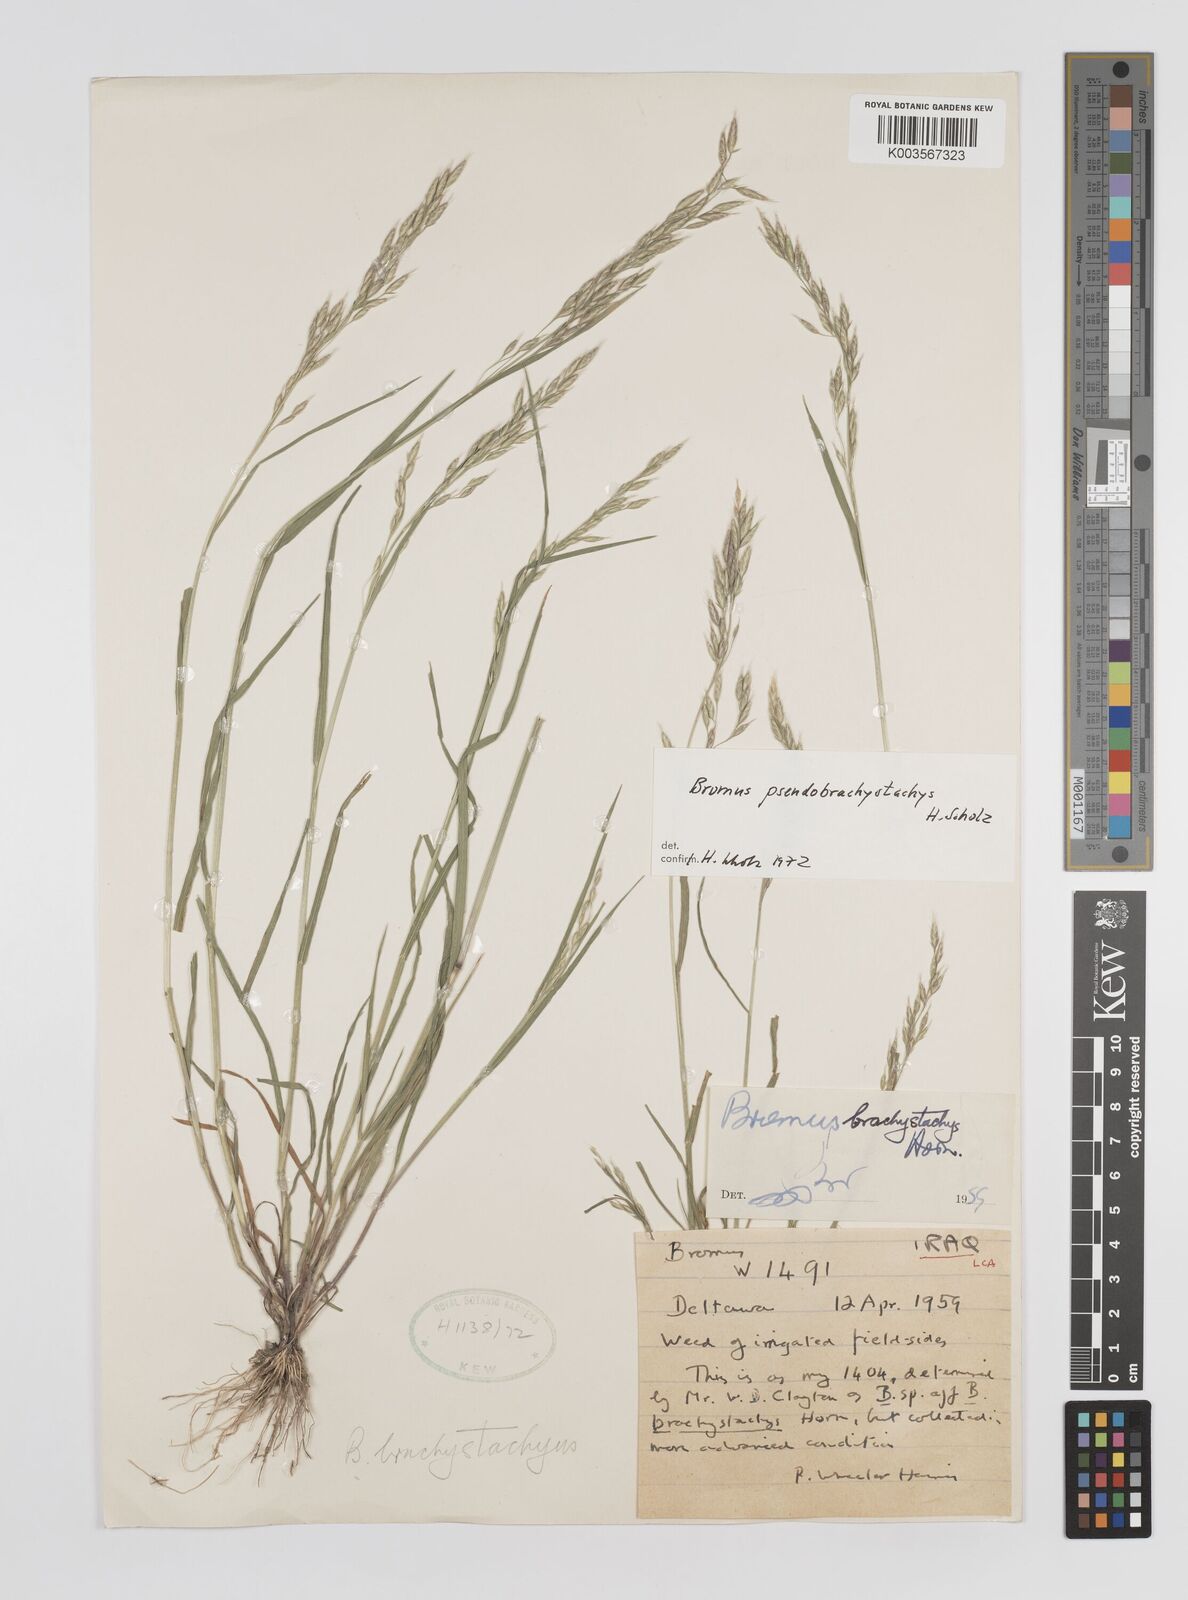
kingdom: Plantae
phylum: Tracheophyta
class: Liliopsida
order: Poales
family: Poaceae
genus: Bromus
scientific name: Bromus pseudobrachystachys
